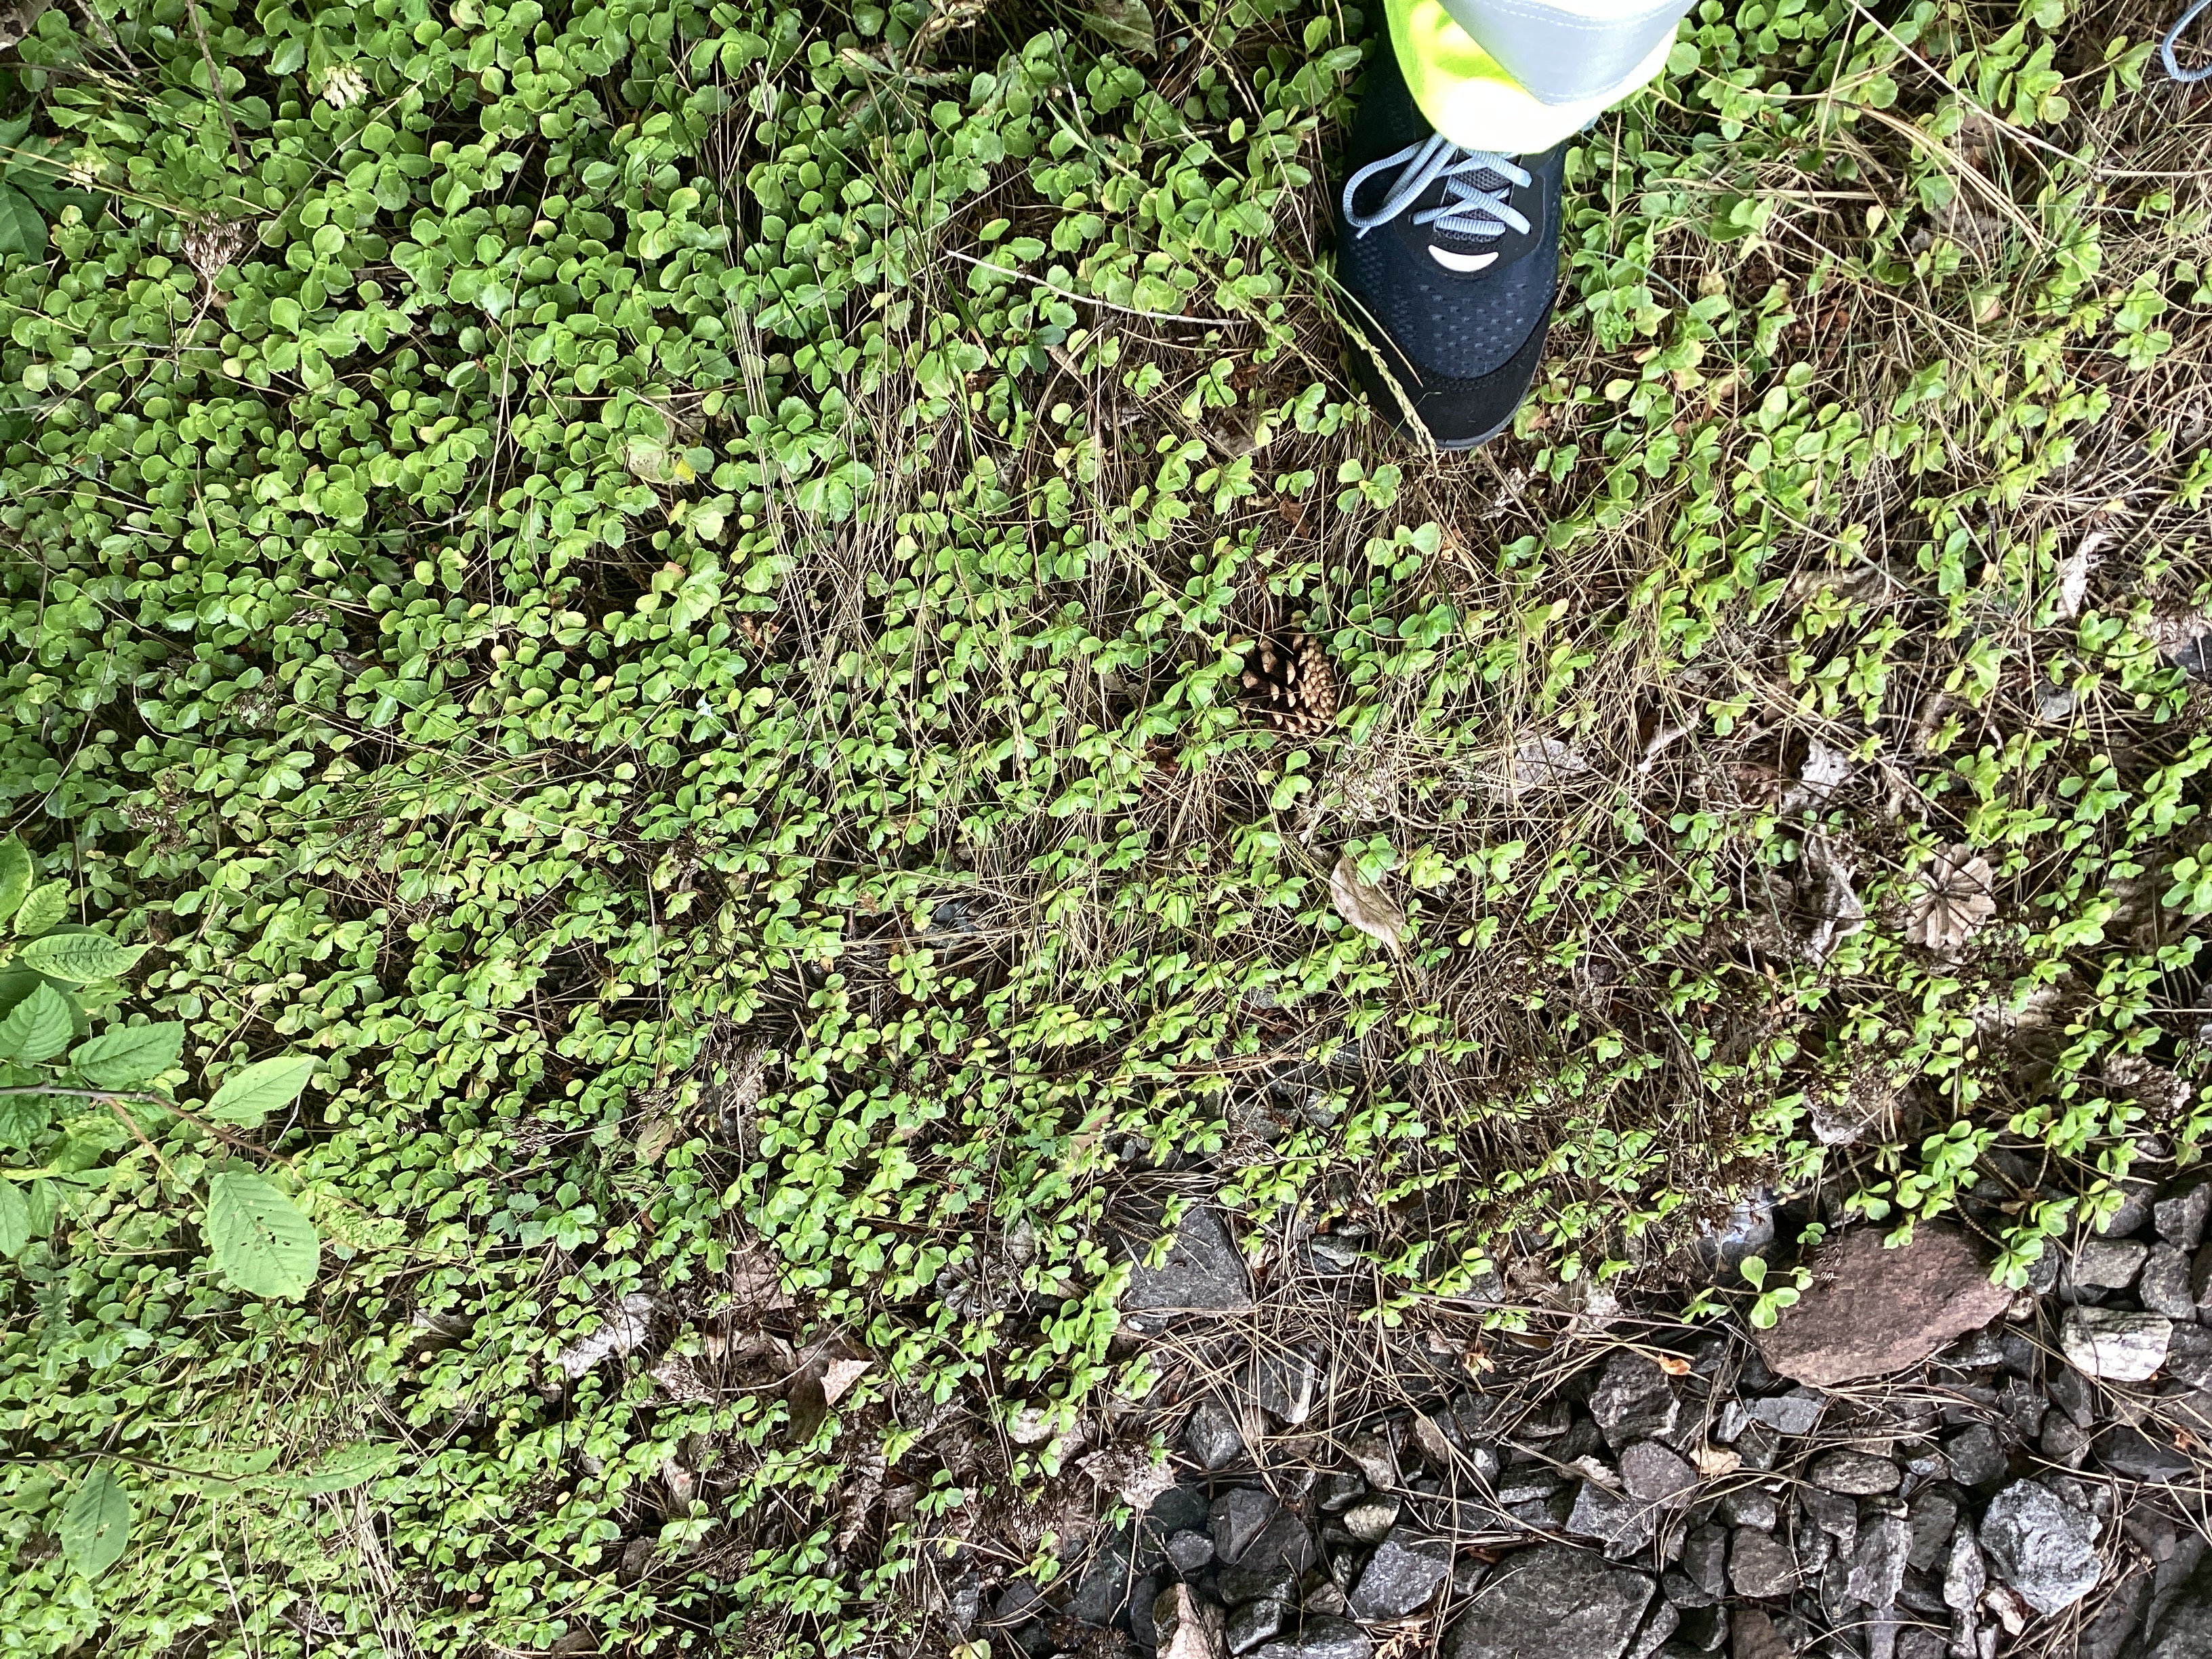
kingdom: Plantae
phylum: Tracheophyta
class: Magnoliopsida
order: Saxifragales
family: Crassulaceae
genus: Phedimus
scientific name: Phedimus spurius
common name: gravbergknapp
